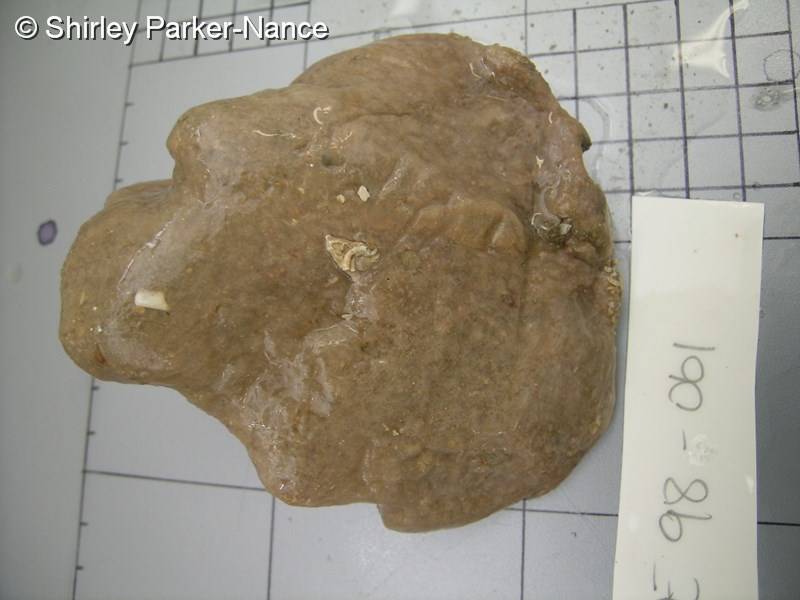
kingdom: Animalia
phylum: Chordata
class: Ascidiacea
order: Aplousobranchia
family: Polyclinidae
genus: Aplidium
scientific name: Aplidium flavolineatum
